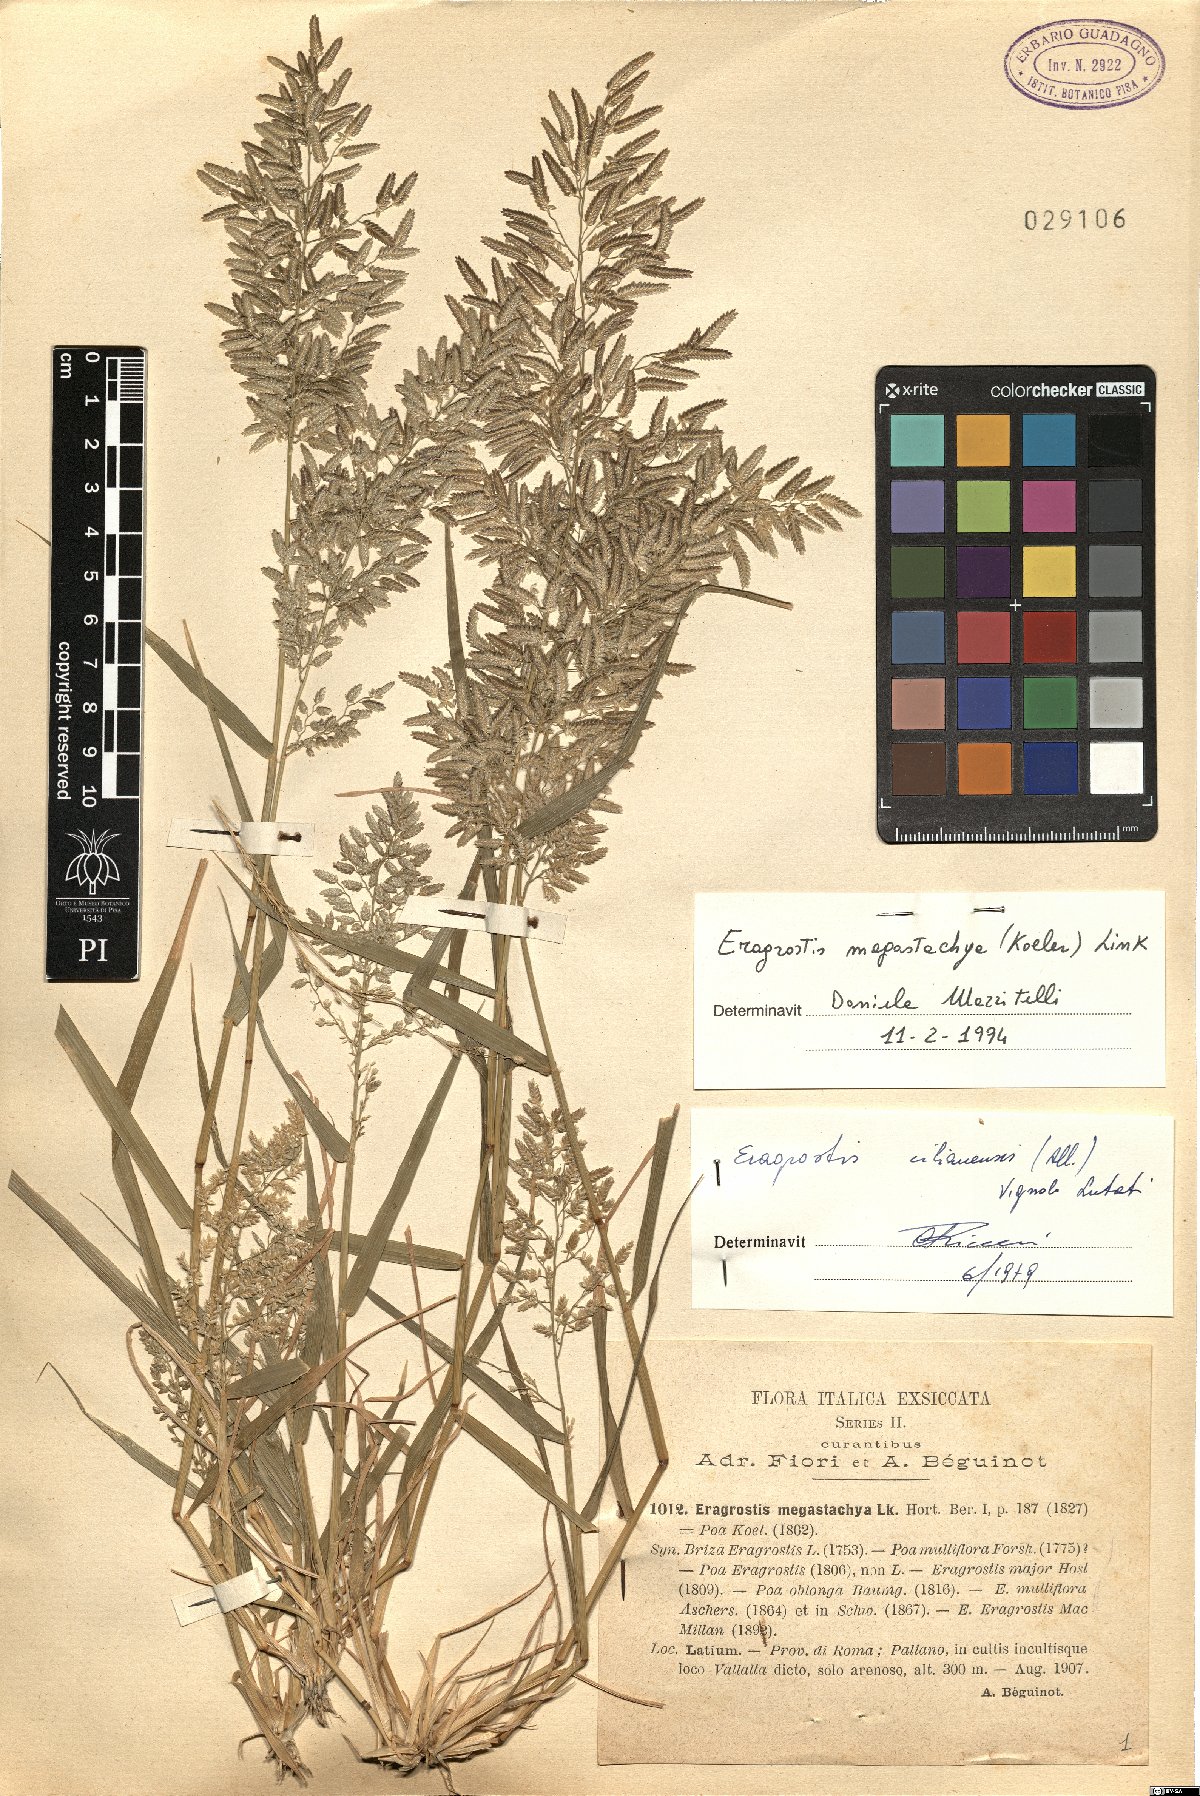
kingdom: Plantae
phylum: Tracheophyta
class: Liliopsida
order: Poales
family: Poaceae
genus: Eragrostis
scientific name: Eragrostis cilianensis
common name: Stinkgrass
